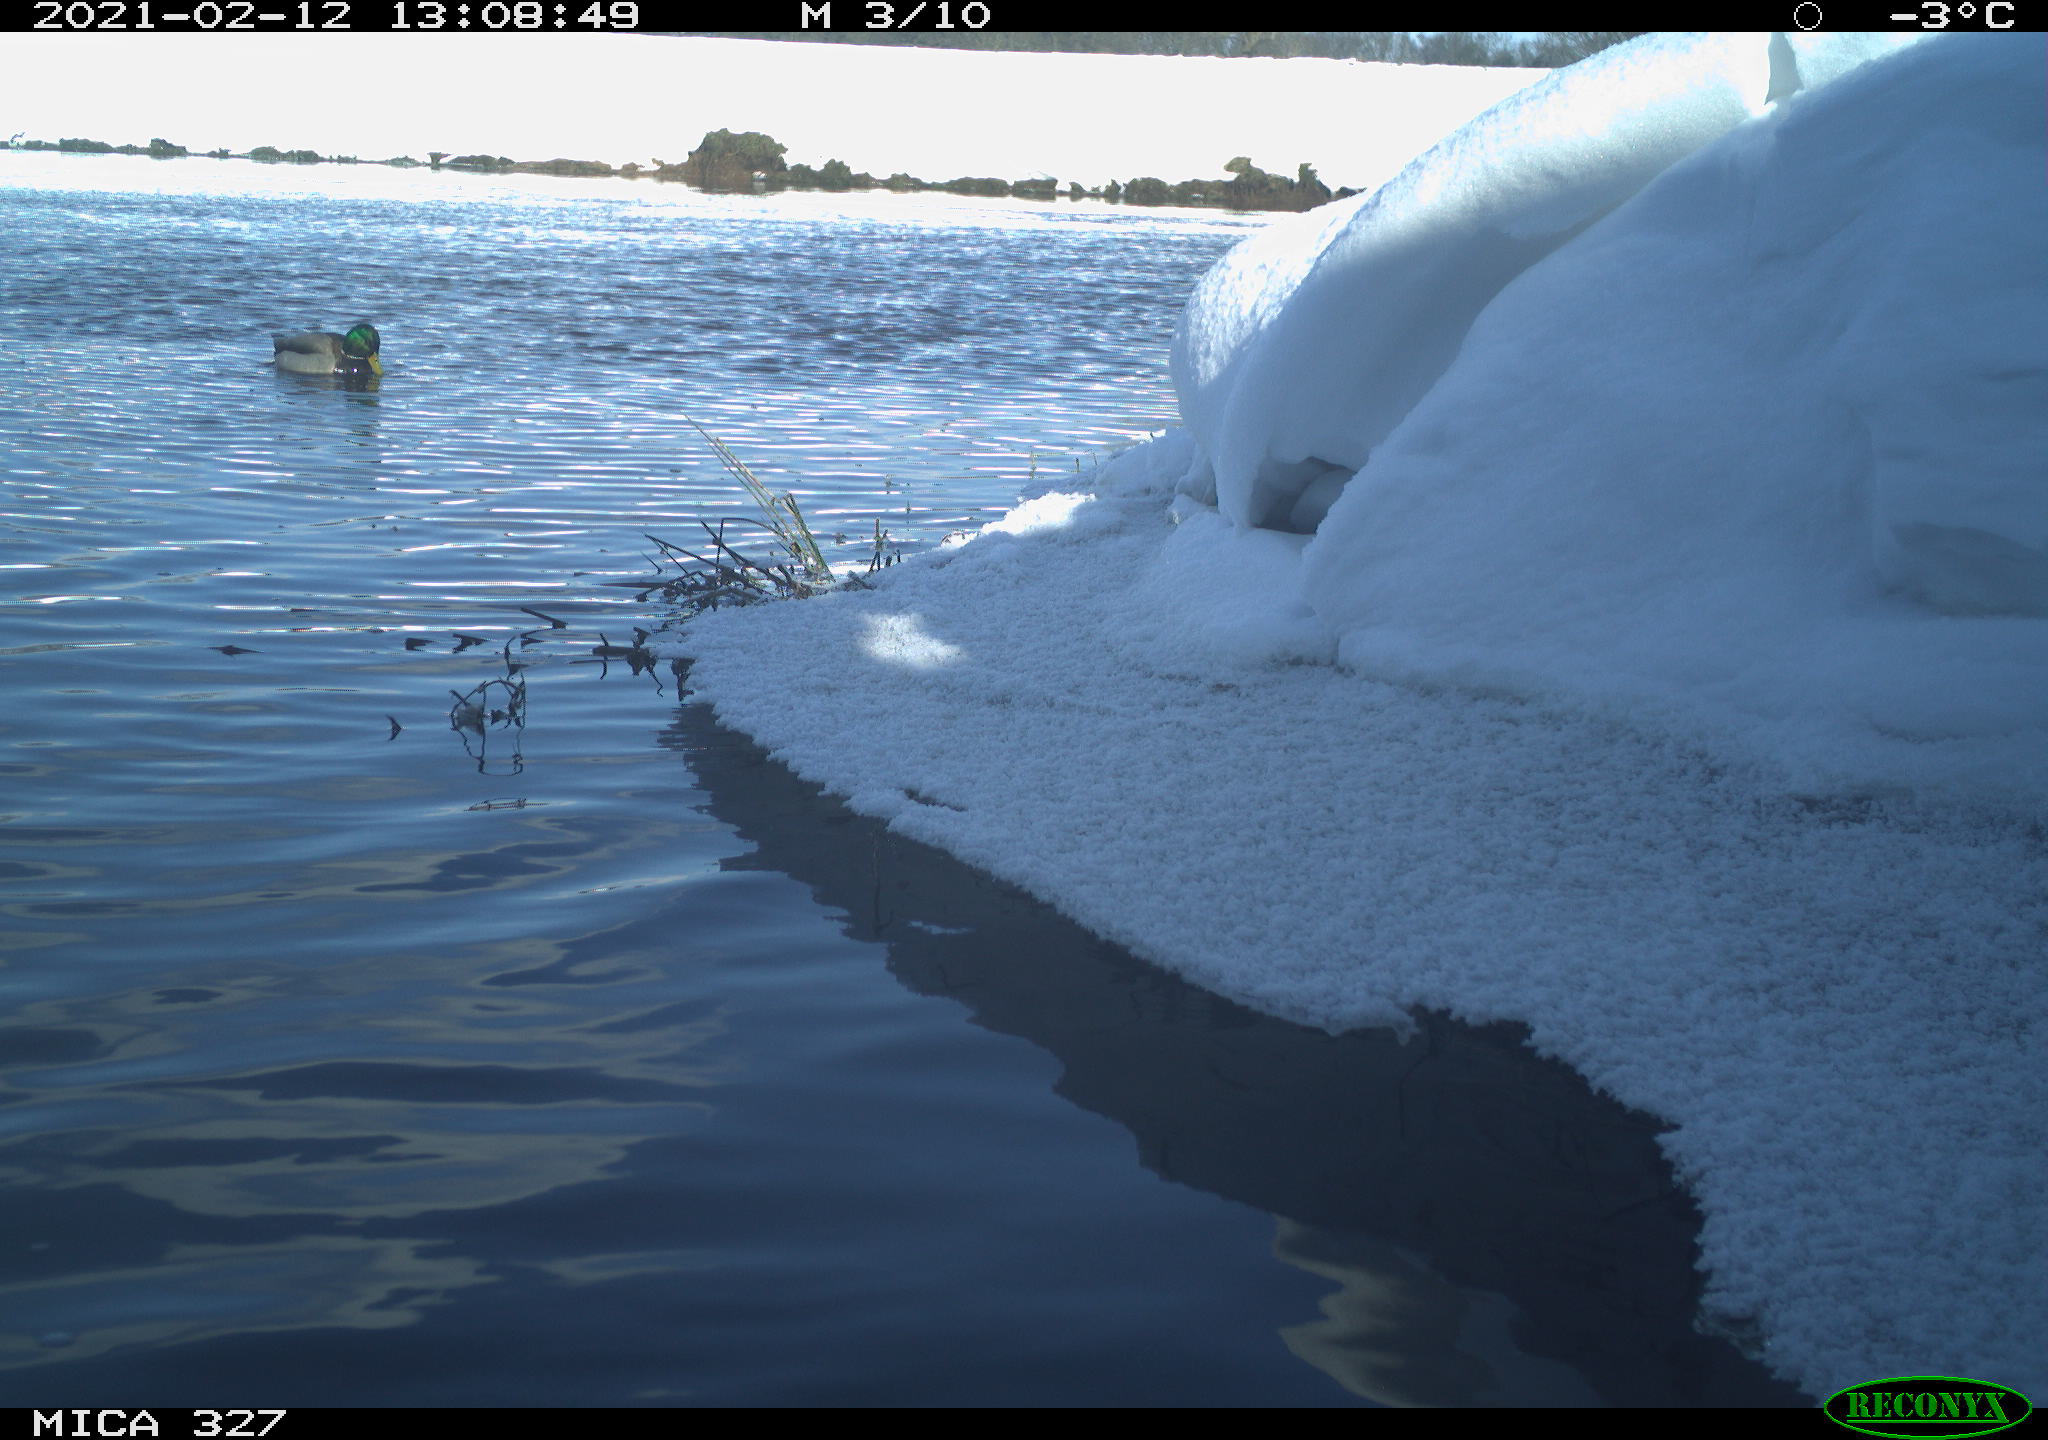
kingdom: Animalia
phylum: Chordata
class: Aves
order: Anseriformes
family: Anatidae
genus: Anas
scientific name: Anas platyrhynchos
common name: Mallard
